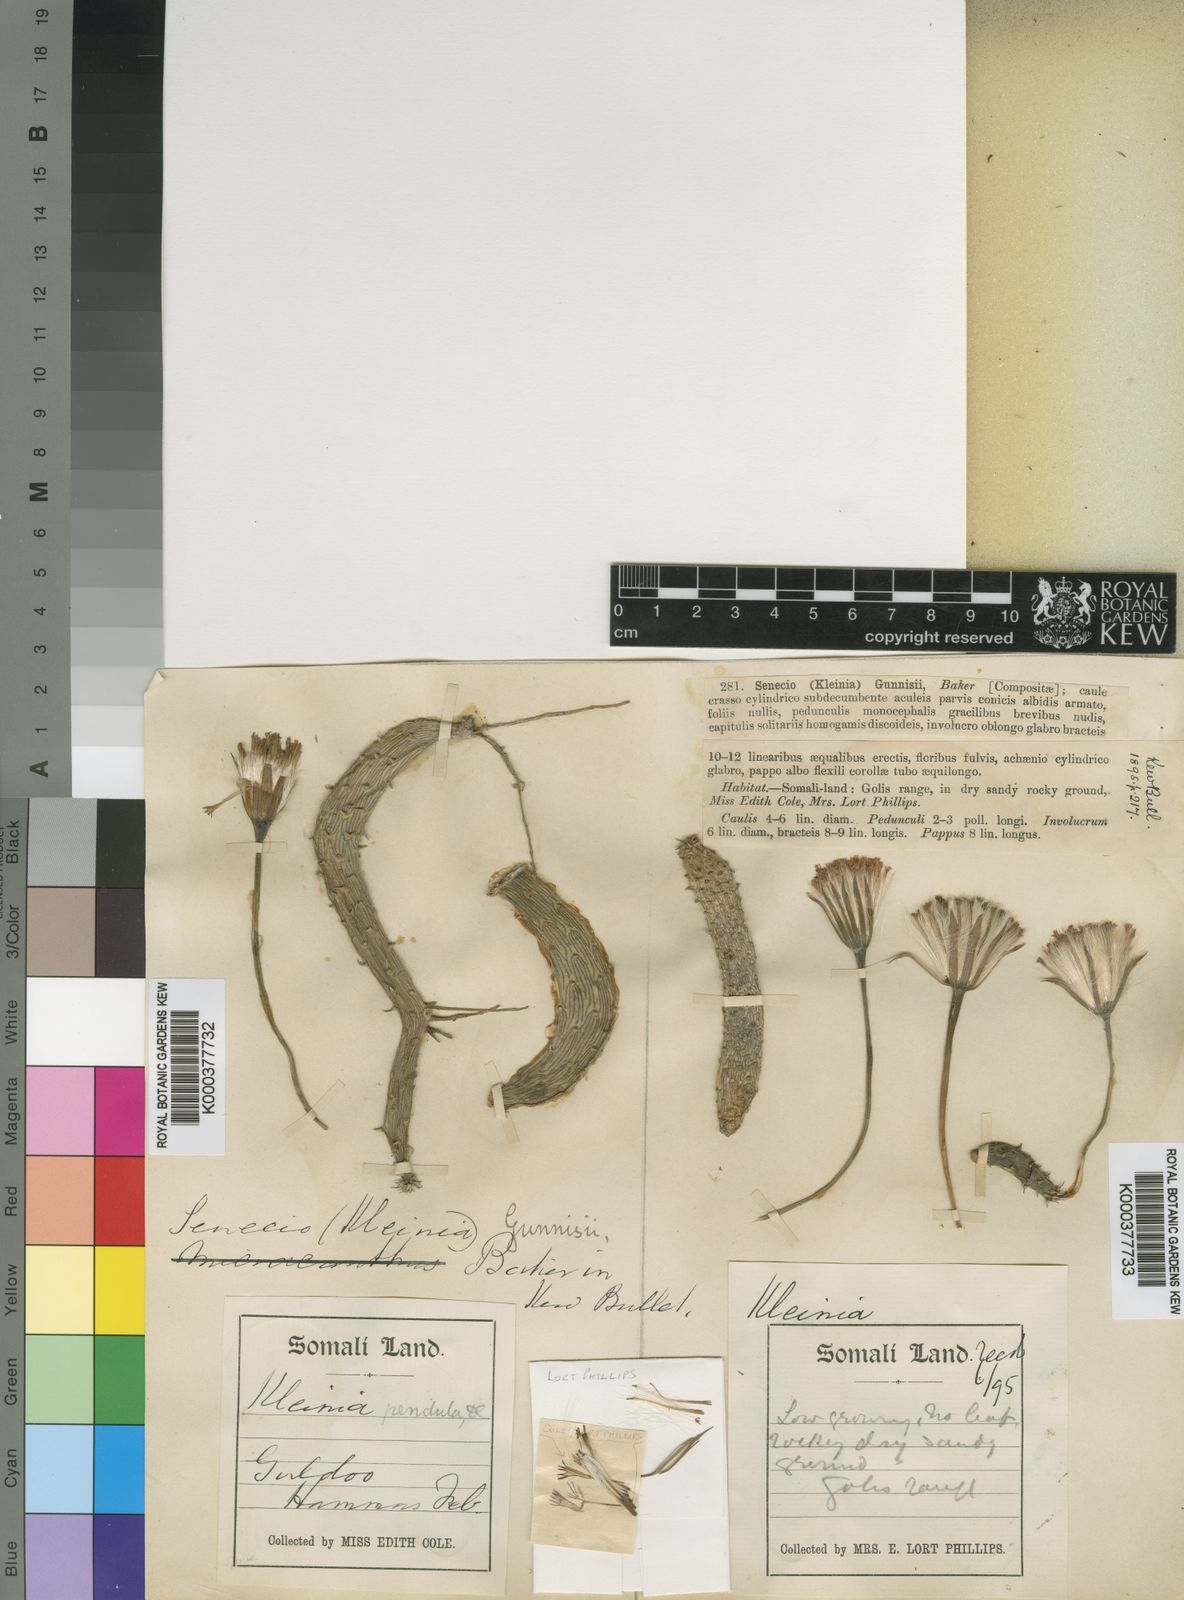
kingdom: Plantae
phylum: Tracheophyta
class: Magnoliopsida
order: Asterales
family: Asteraceae
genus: Kleinia
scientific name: Kleinia pendula
